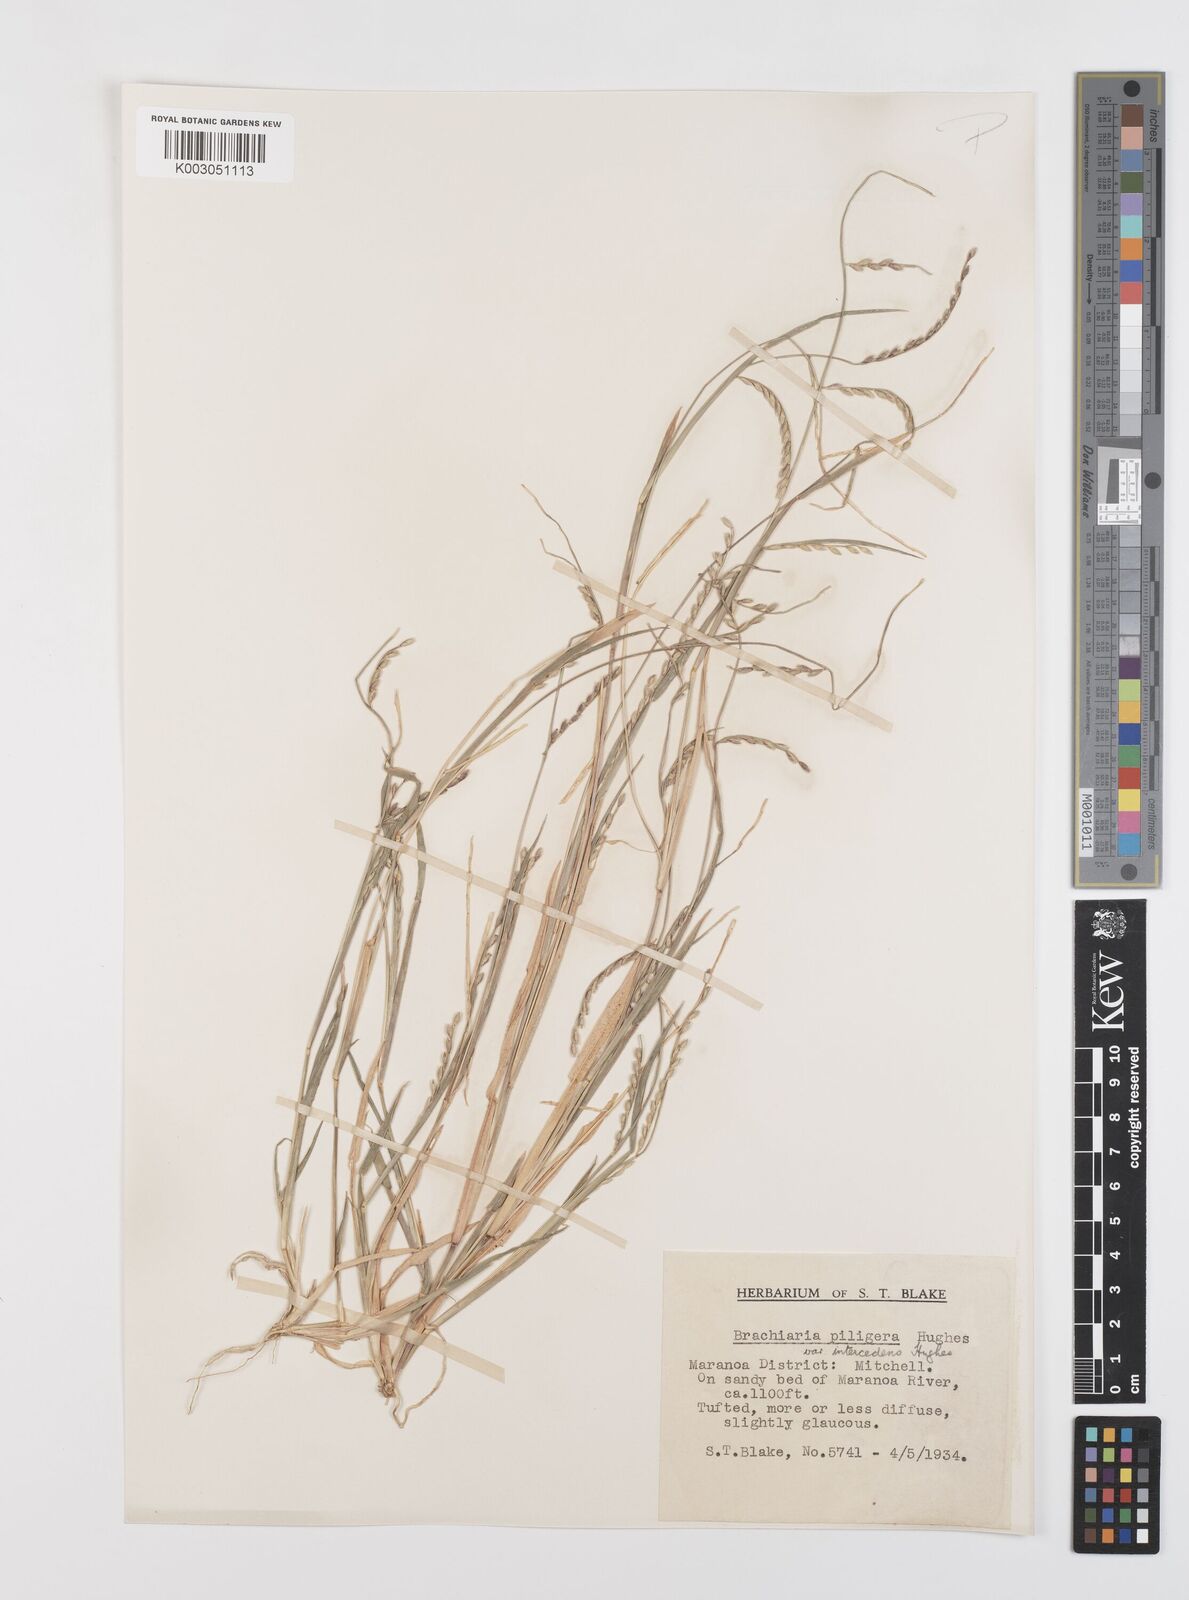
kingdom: Plantae
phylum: Tracheophyta
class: Liliopsida
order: Poales
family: Poaceae
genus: Urochloa
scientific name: Urochloa piligera
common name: Wattle signalgrass
